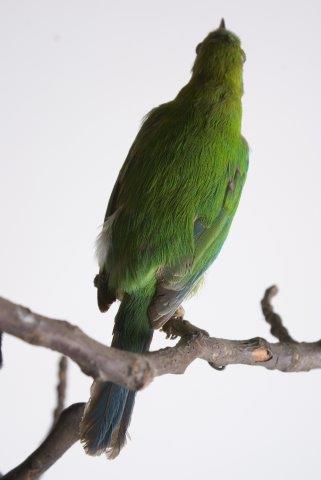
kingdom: Animalia
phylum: Chordata
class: Aves
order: Passeriformes
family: Chloropseidae
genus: Chloropsis
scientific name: Chloropsis aurifrons
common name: Golden-fronted leafbird
